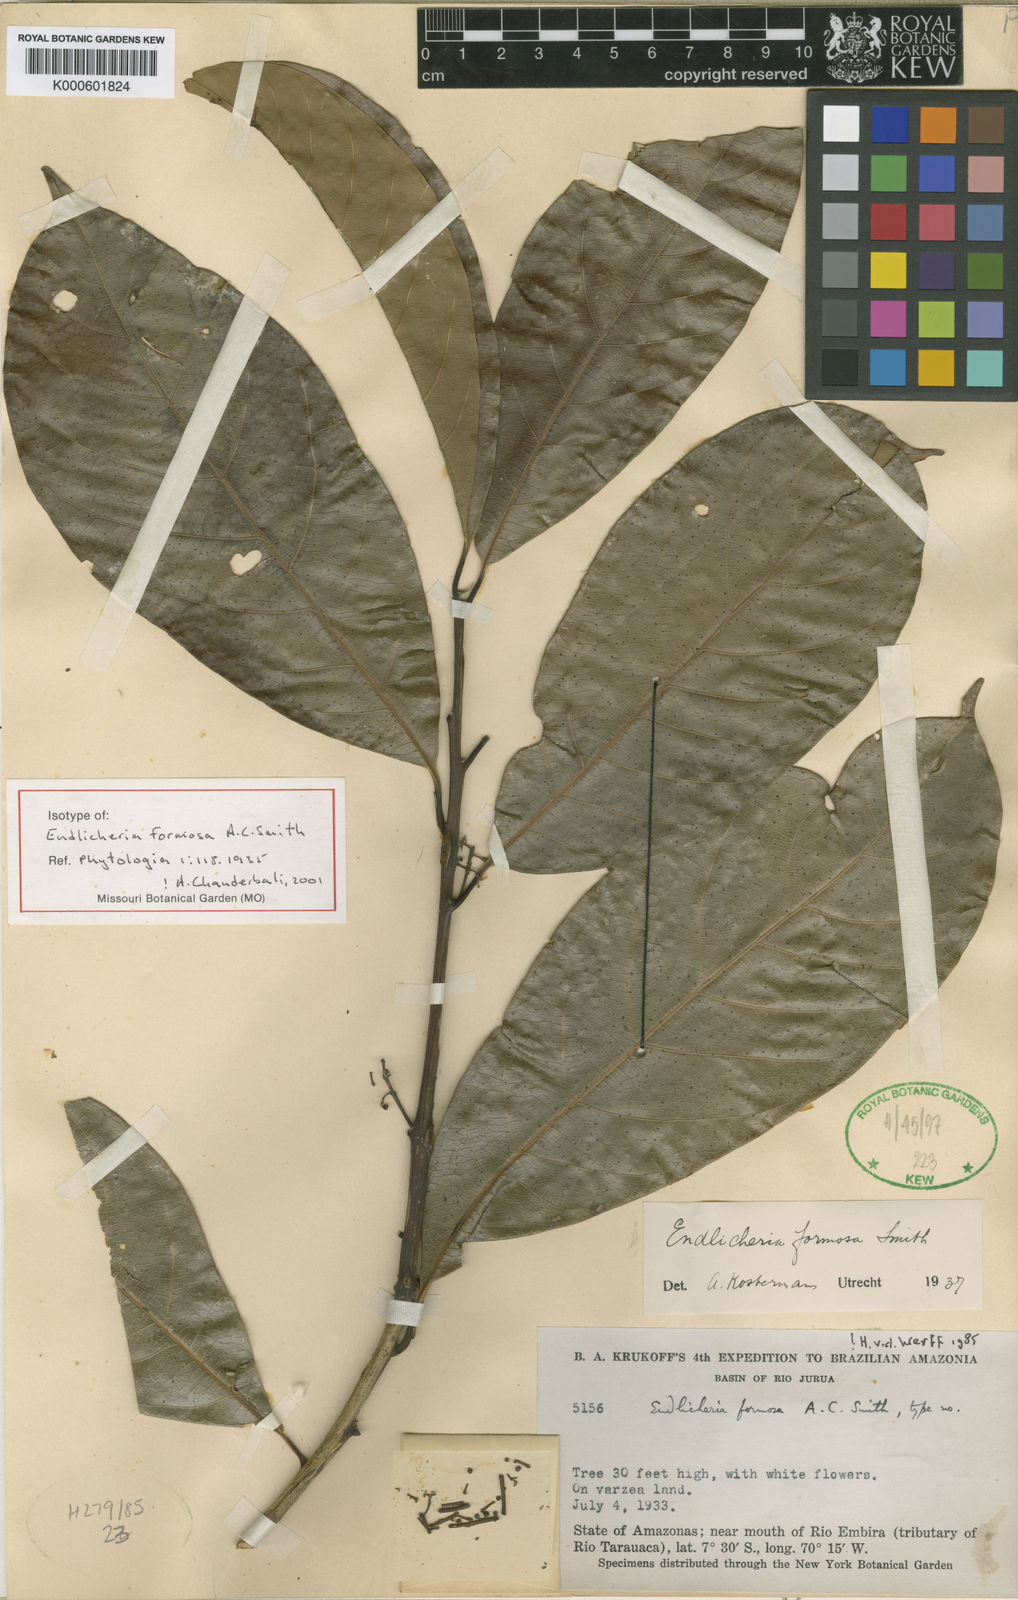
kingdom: Plantae
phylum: Tracheophyta
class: Magnoliopsida
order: Laurales
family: Lauraceae
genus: Endlicheria
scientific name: Endlicheria formosa
